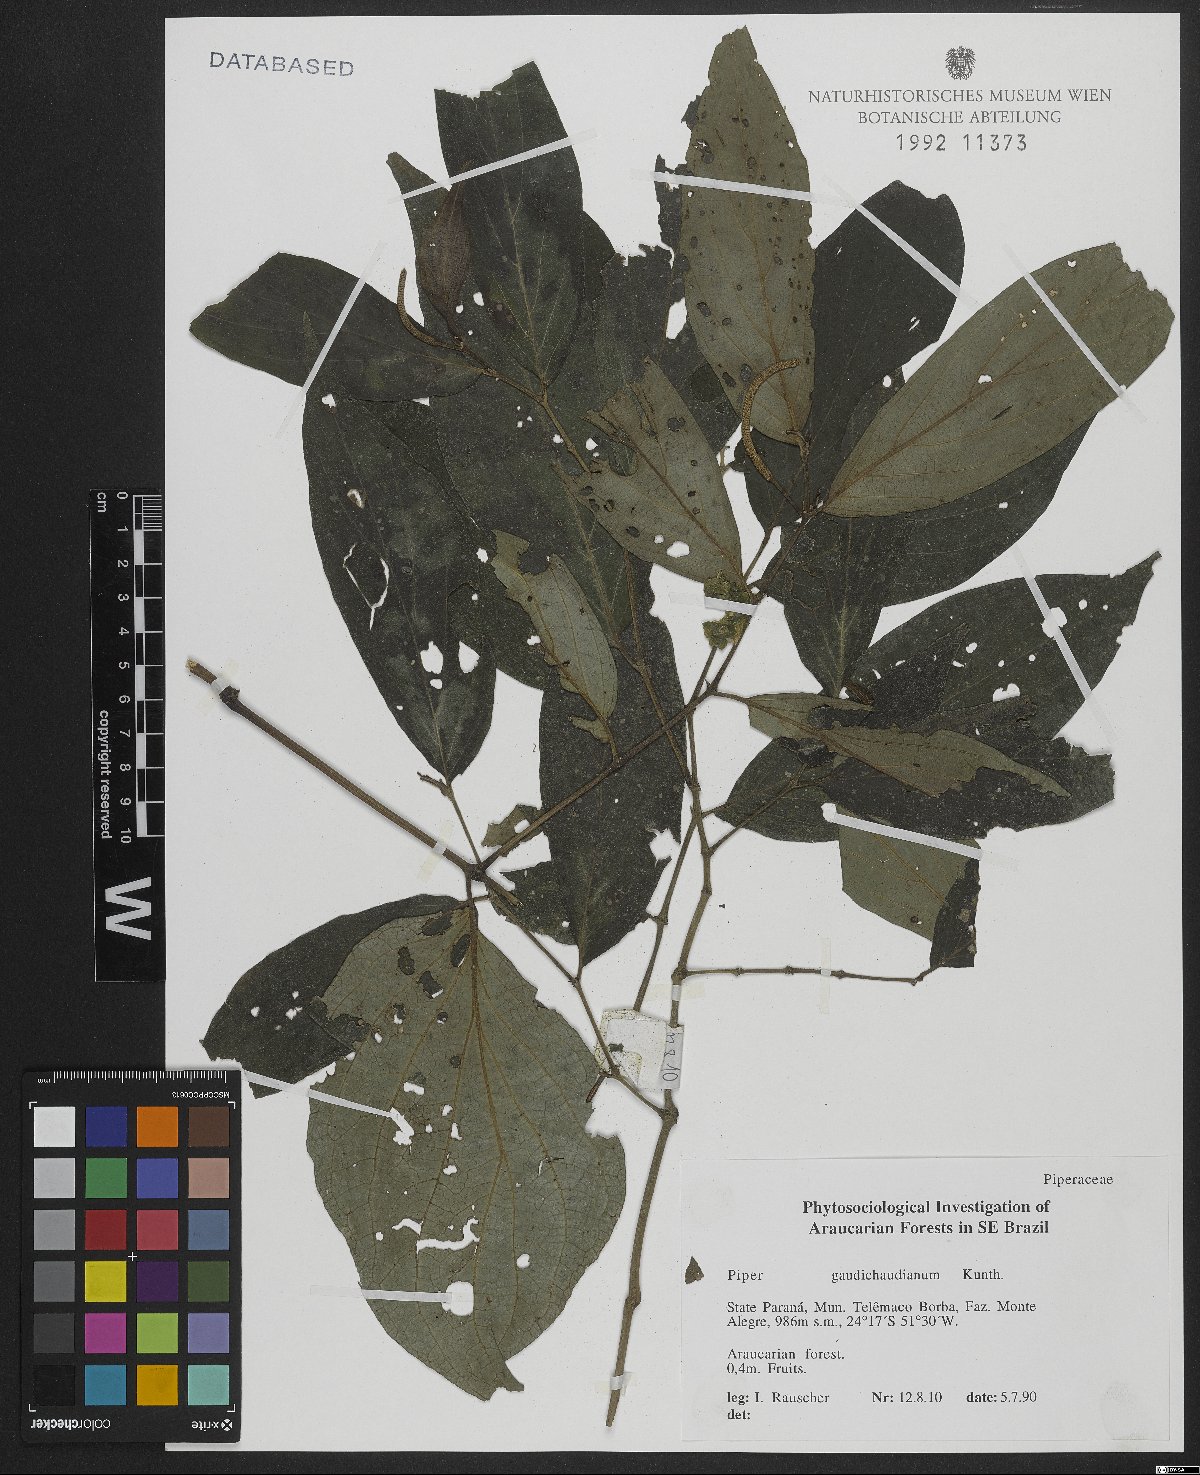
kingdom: Plantae
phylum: Tracheophyta
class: Magnoliopsida
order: Piperales
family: Piperaceae
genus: Piper
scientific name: Piper gaudichaudianum
